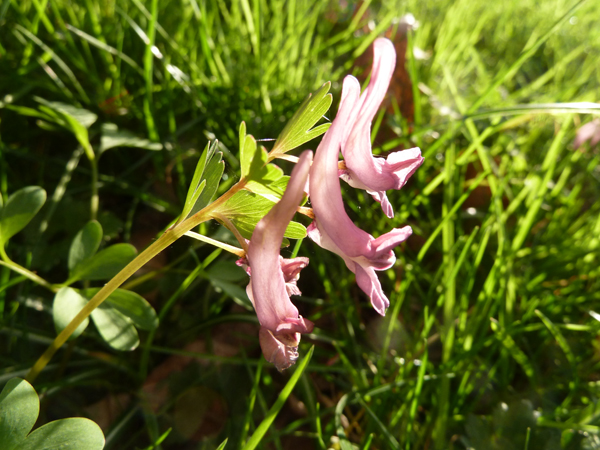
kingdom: Plantae
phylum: Tracheophyta
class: Magnoliopsida
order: Ranunculales
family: Papaveraceae
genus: Corydalis
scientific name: Corydalis solida
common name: Bird-in-a-bush
